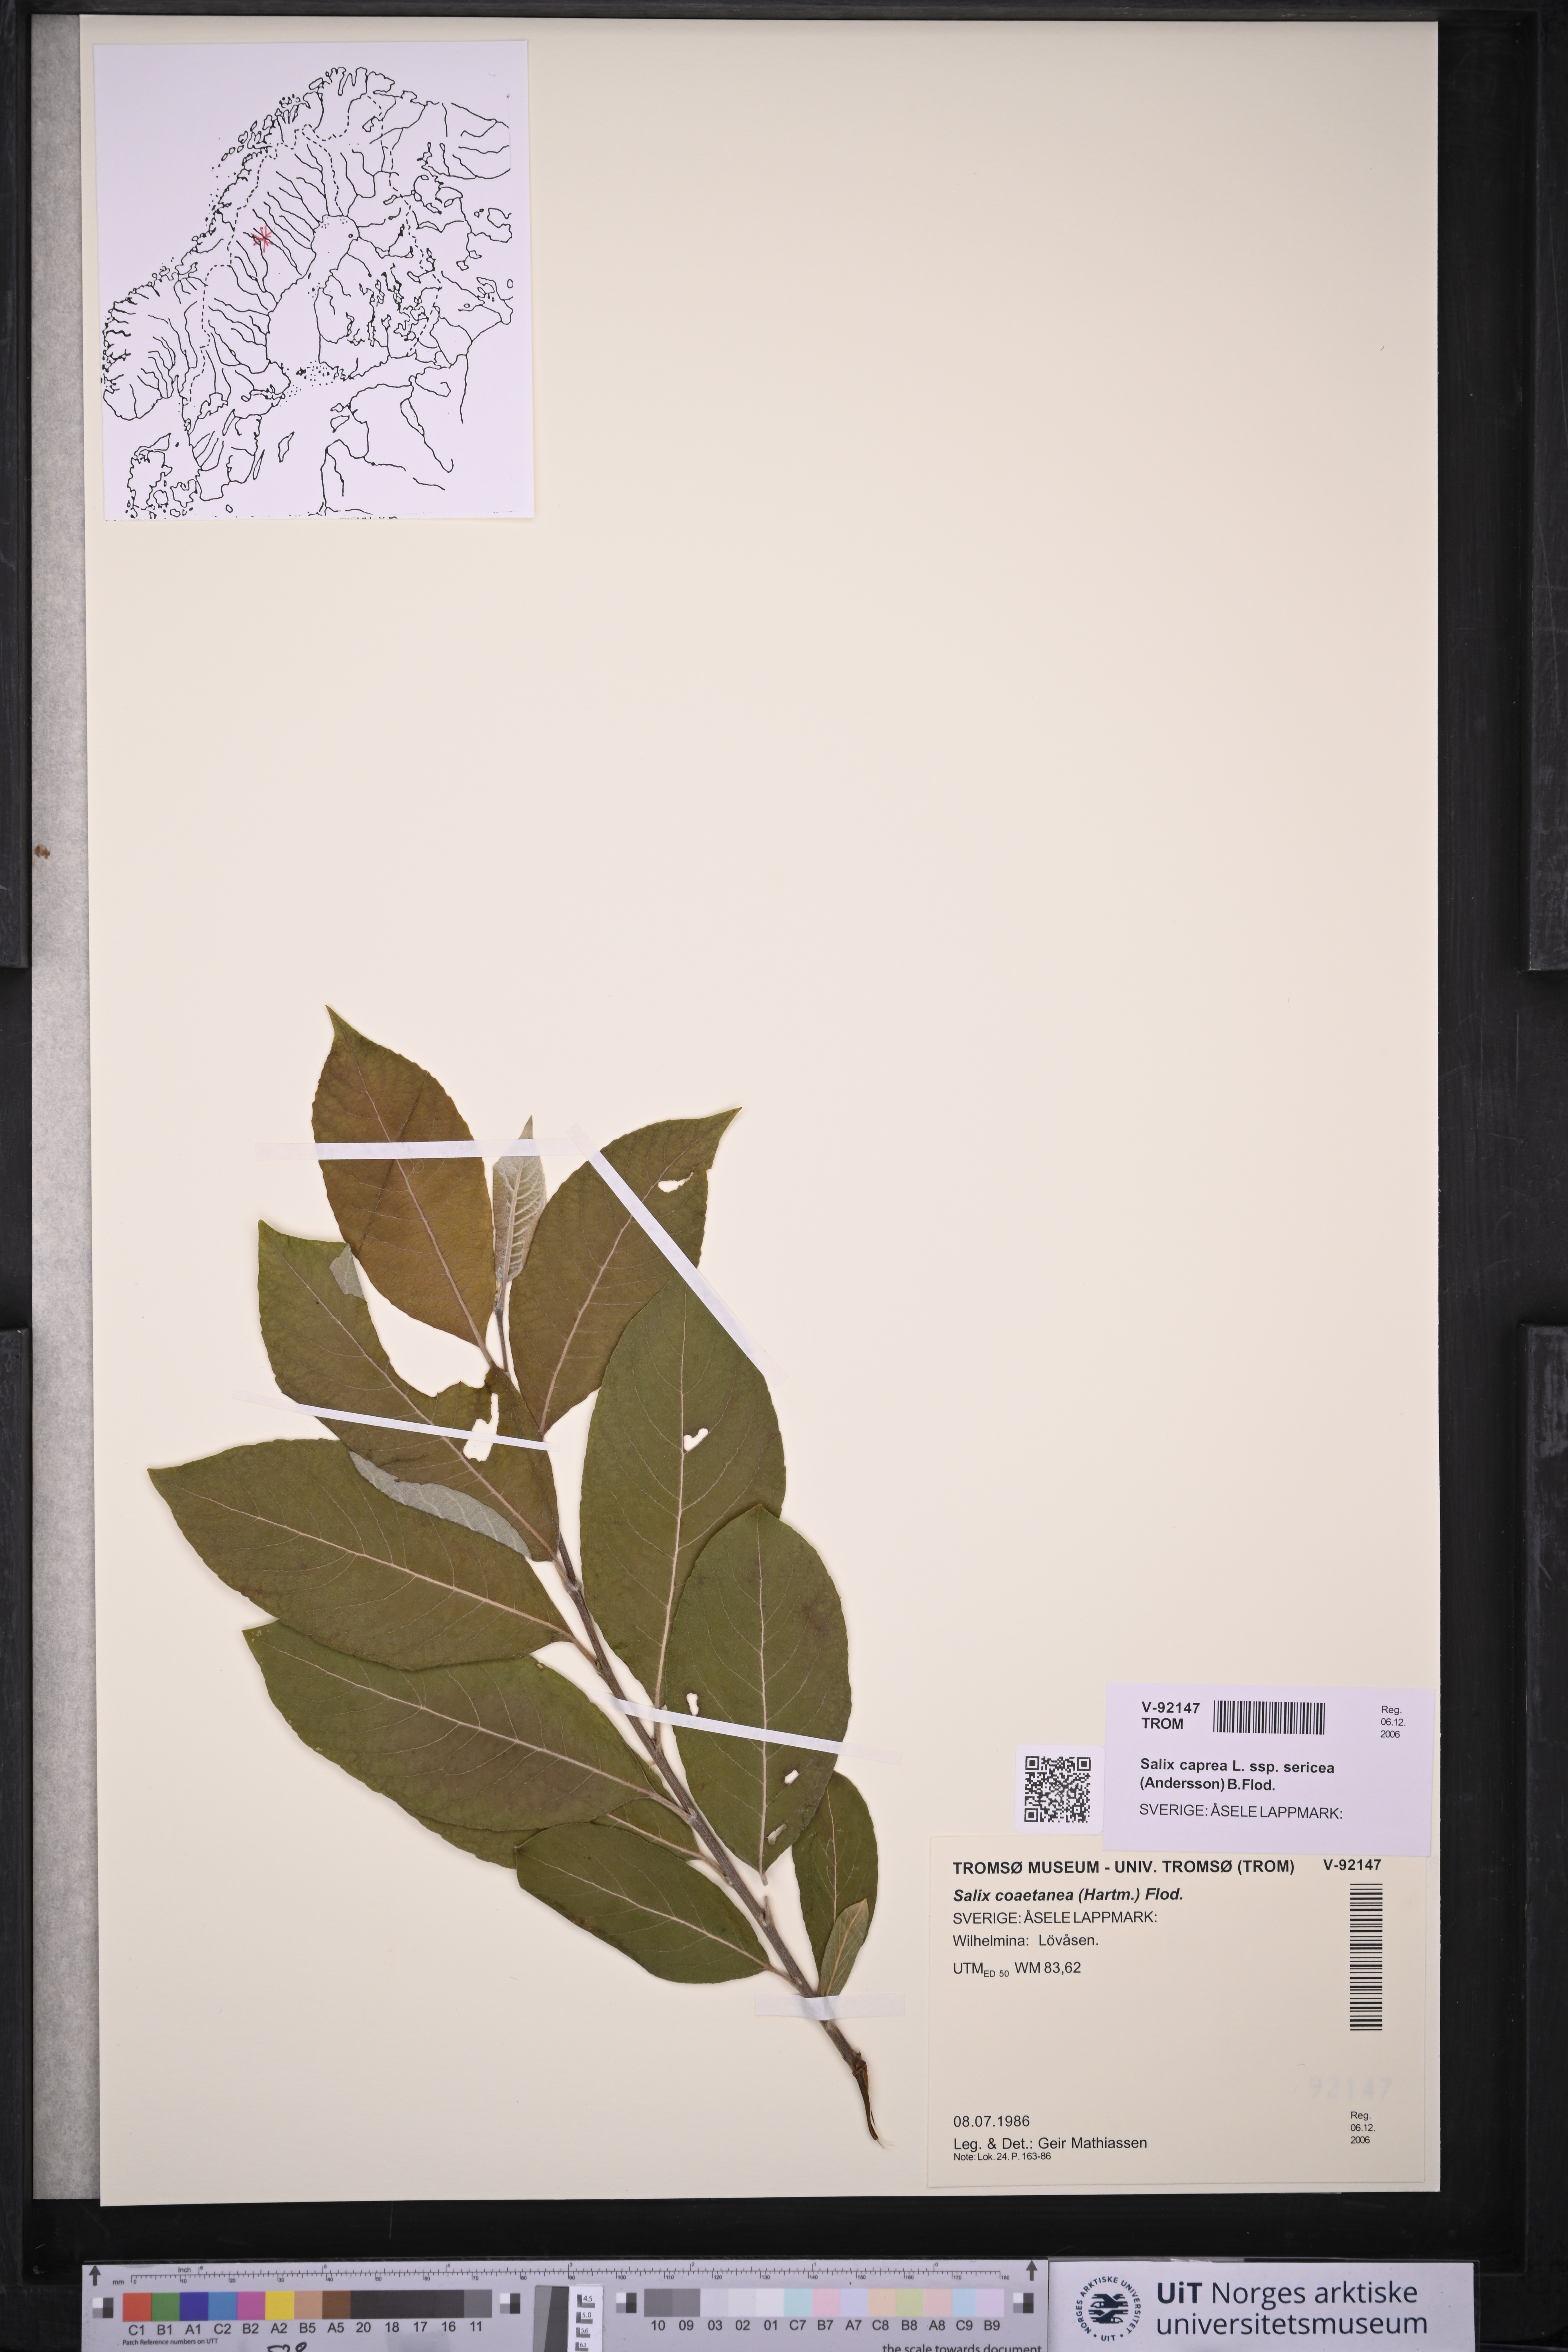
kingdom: Plantae
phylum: Tracheophyta
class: Magnoliopsida
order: Malpighiales
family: Salicaceae
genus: Salix
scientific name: Salix caprea
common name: Goat willow
